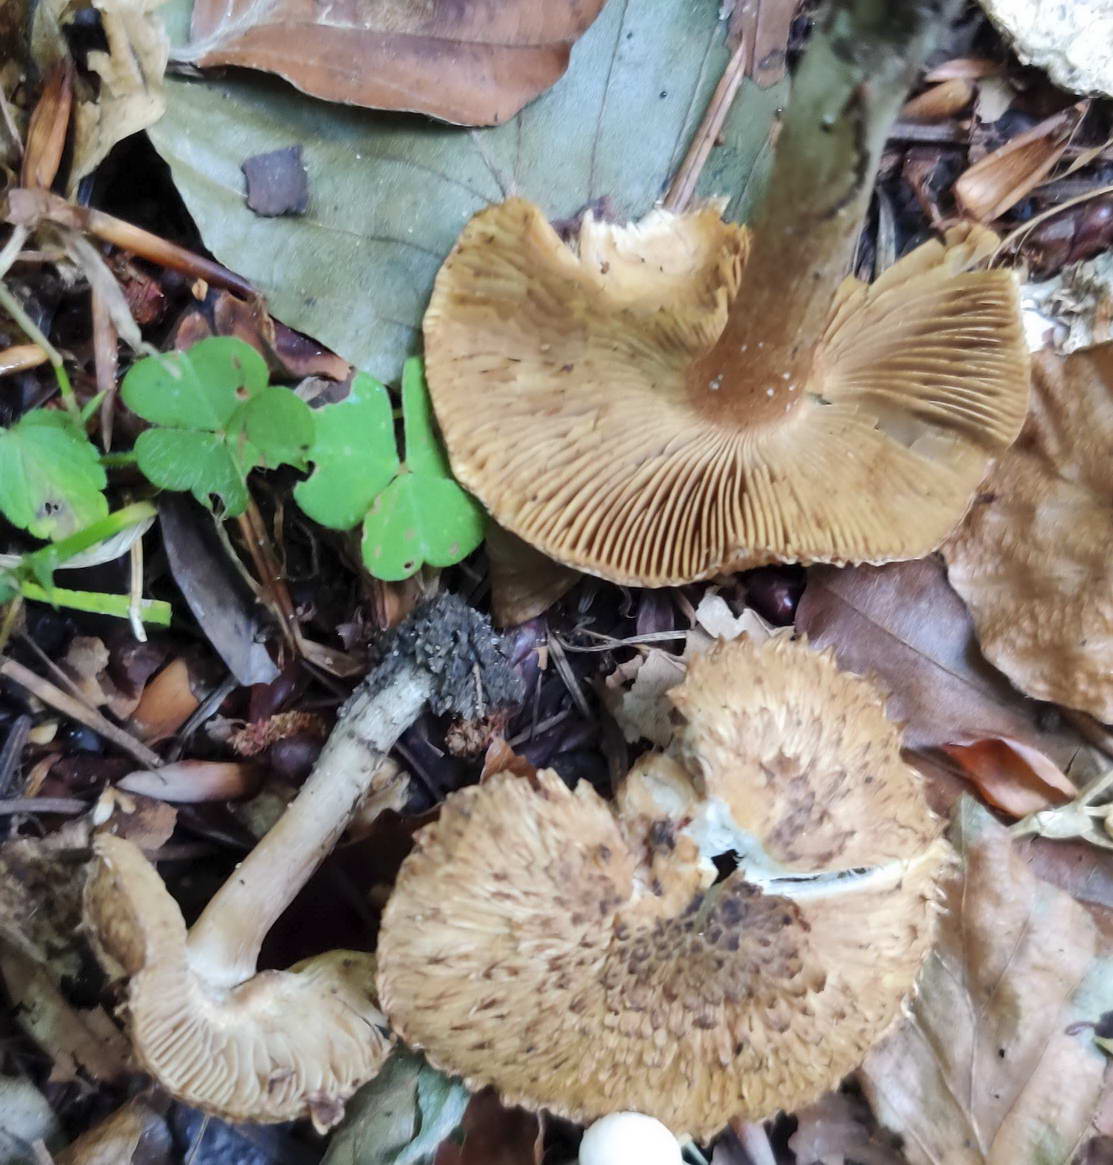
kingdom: Fungi
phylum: Basidiomycota
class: Agaricomycetes
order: Agaricales
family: Inocybaceae
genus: Inosperma
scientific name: Inosperma bongardii
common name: Bongards trævlhat
